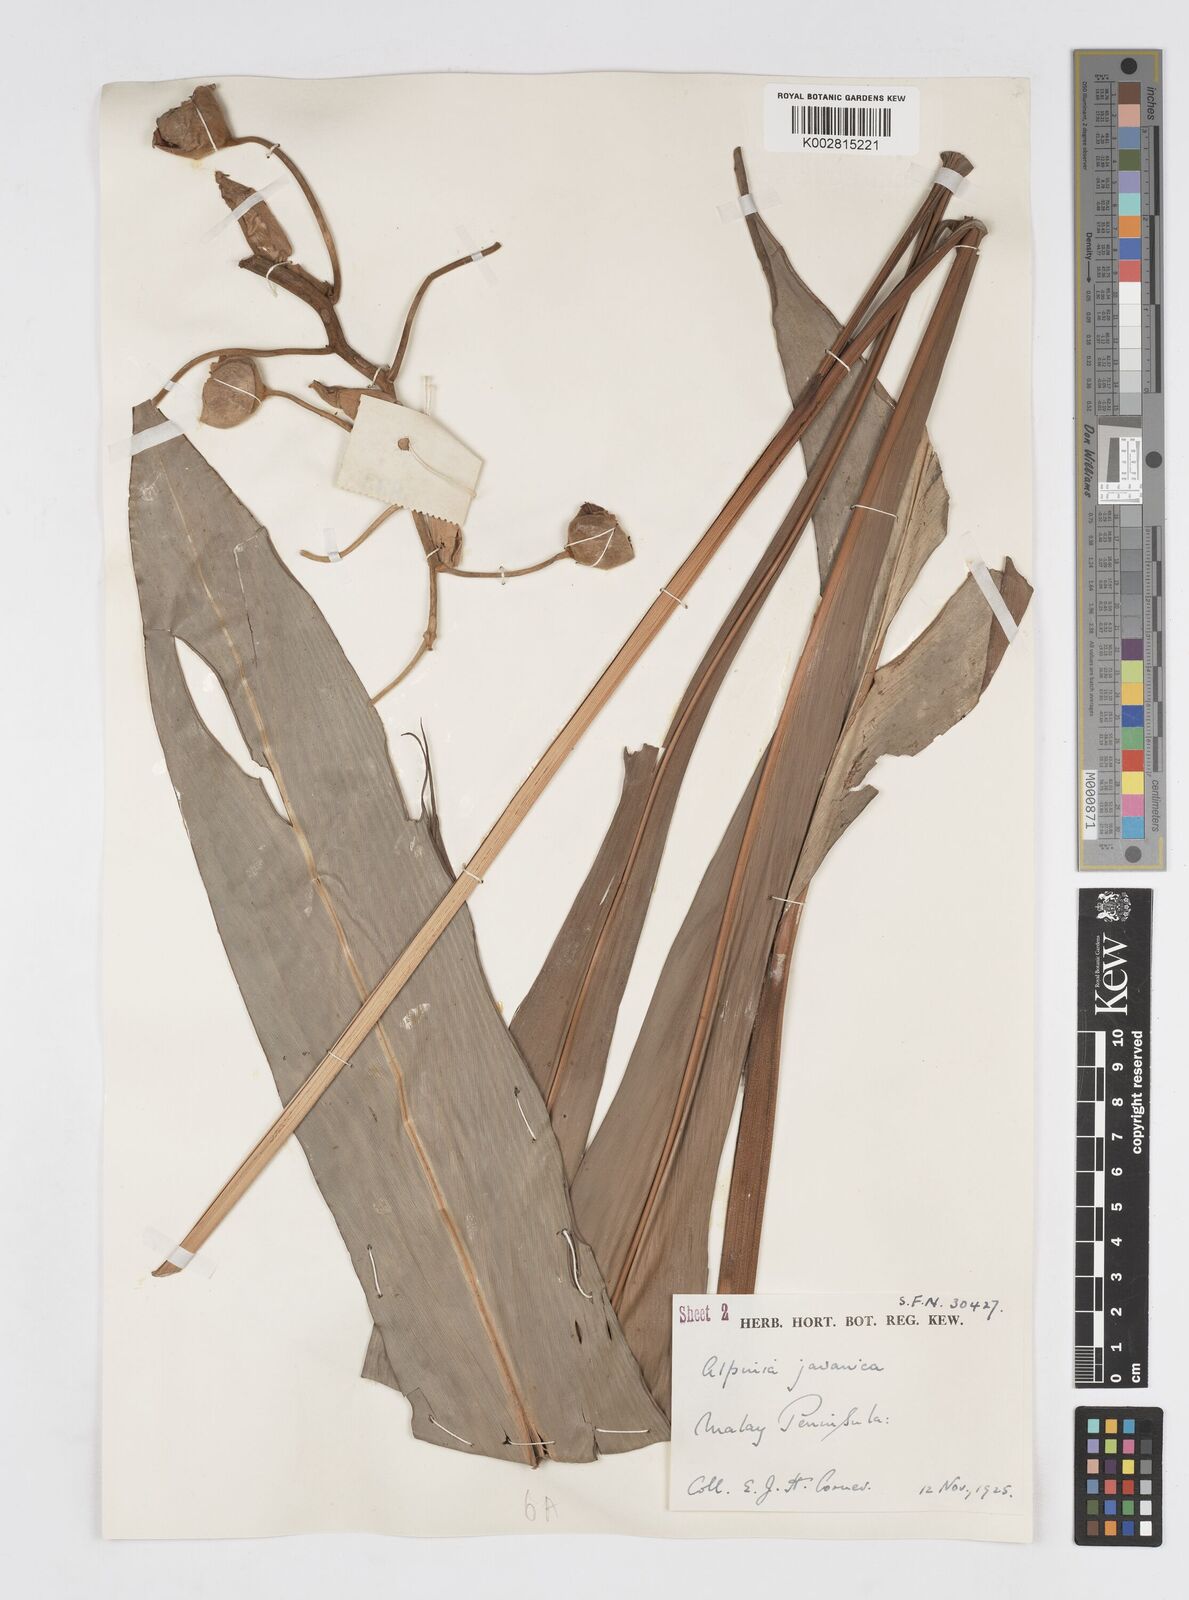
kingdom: Plantae
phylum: Tracheophyta
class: Liliopsida
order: Zingiberales
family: Zingiberaceae
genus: Alpinia
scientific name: Alpinia javanica
